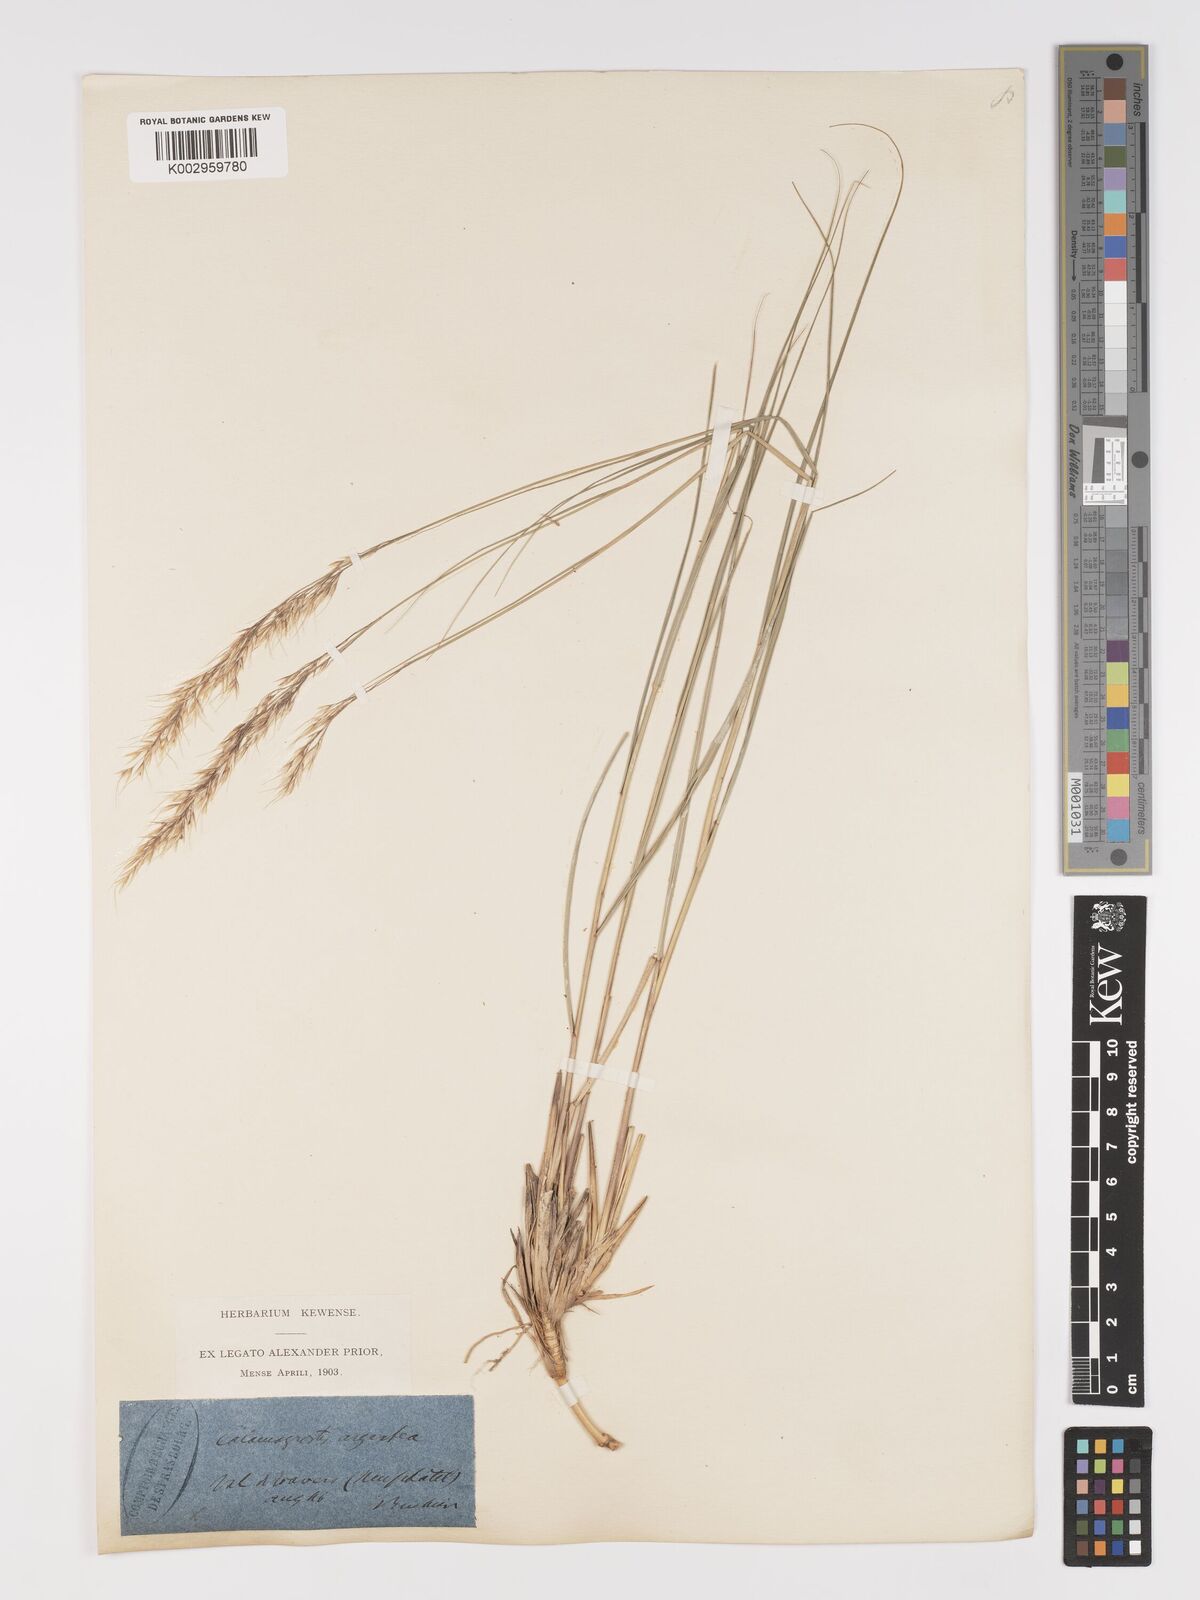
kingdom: Plantae
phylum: Tracheophyta
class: Liliopsida
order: Poales
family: Poaceae
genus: Achnatherum
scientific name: Achnatherum calamagrostis
